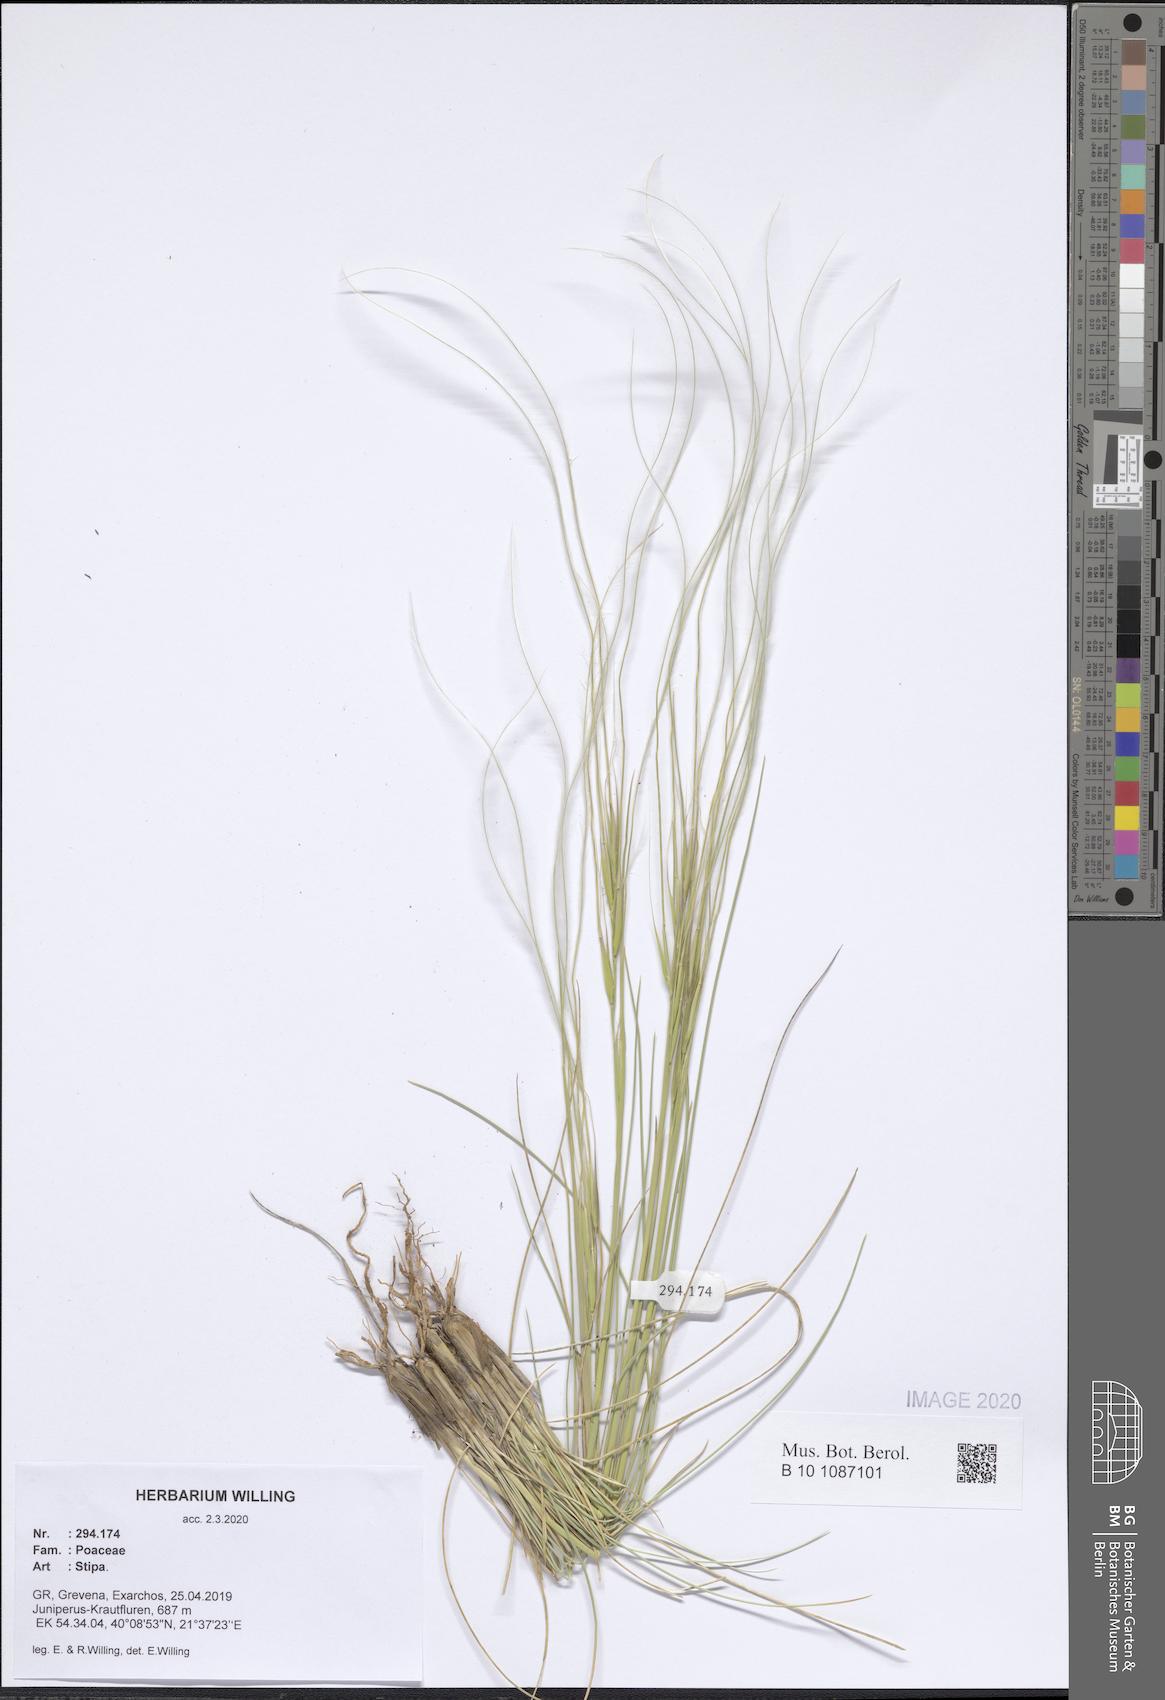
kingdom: Plantae
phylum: Tracheophyta
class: Liliopsida
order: Poales
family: Poaceae
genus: Stipa
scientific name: Stipa
